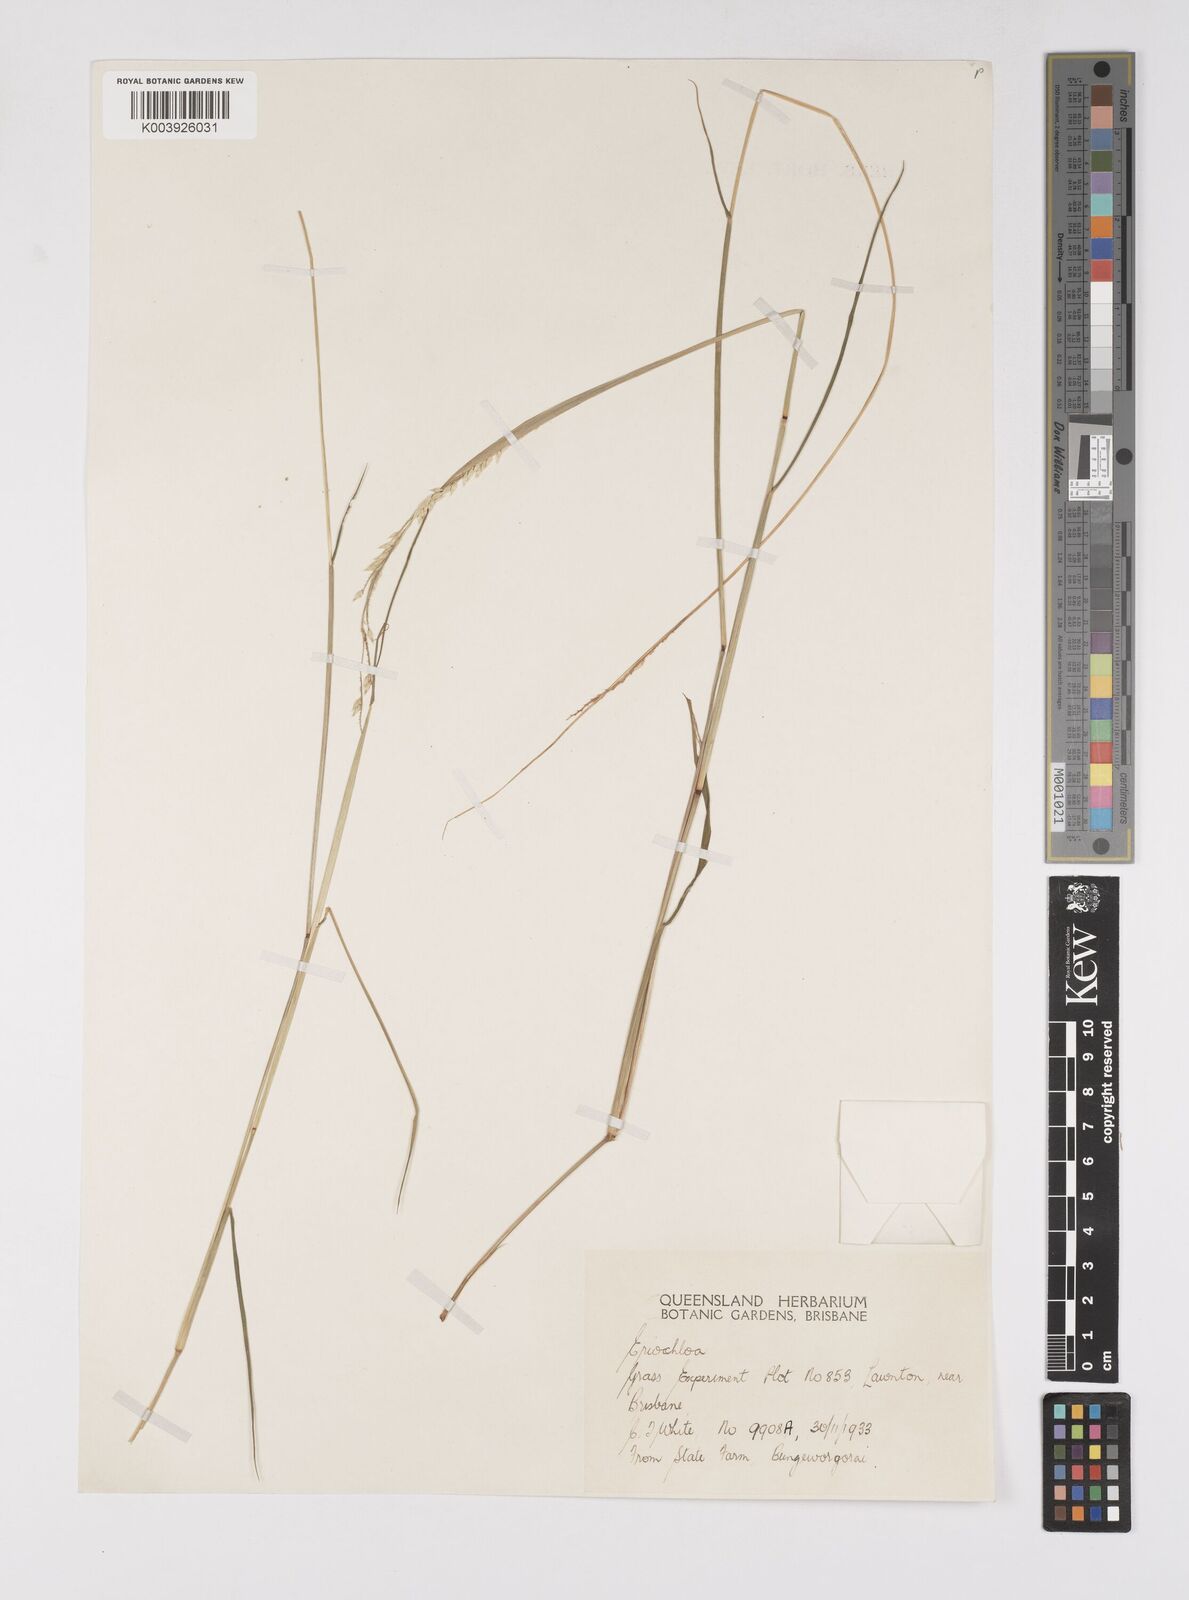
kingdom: Plantae
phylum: Tracheophyta
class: Liliopsida
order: Poales
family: Poaceae
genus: Eriochloa
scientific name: Eriochloa
